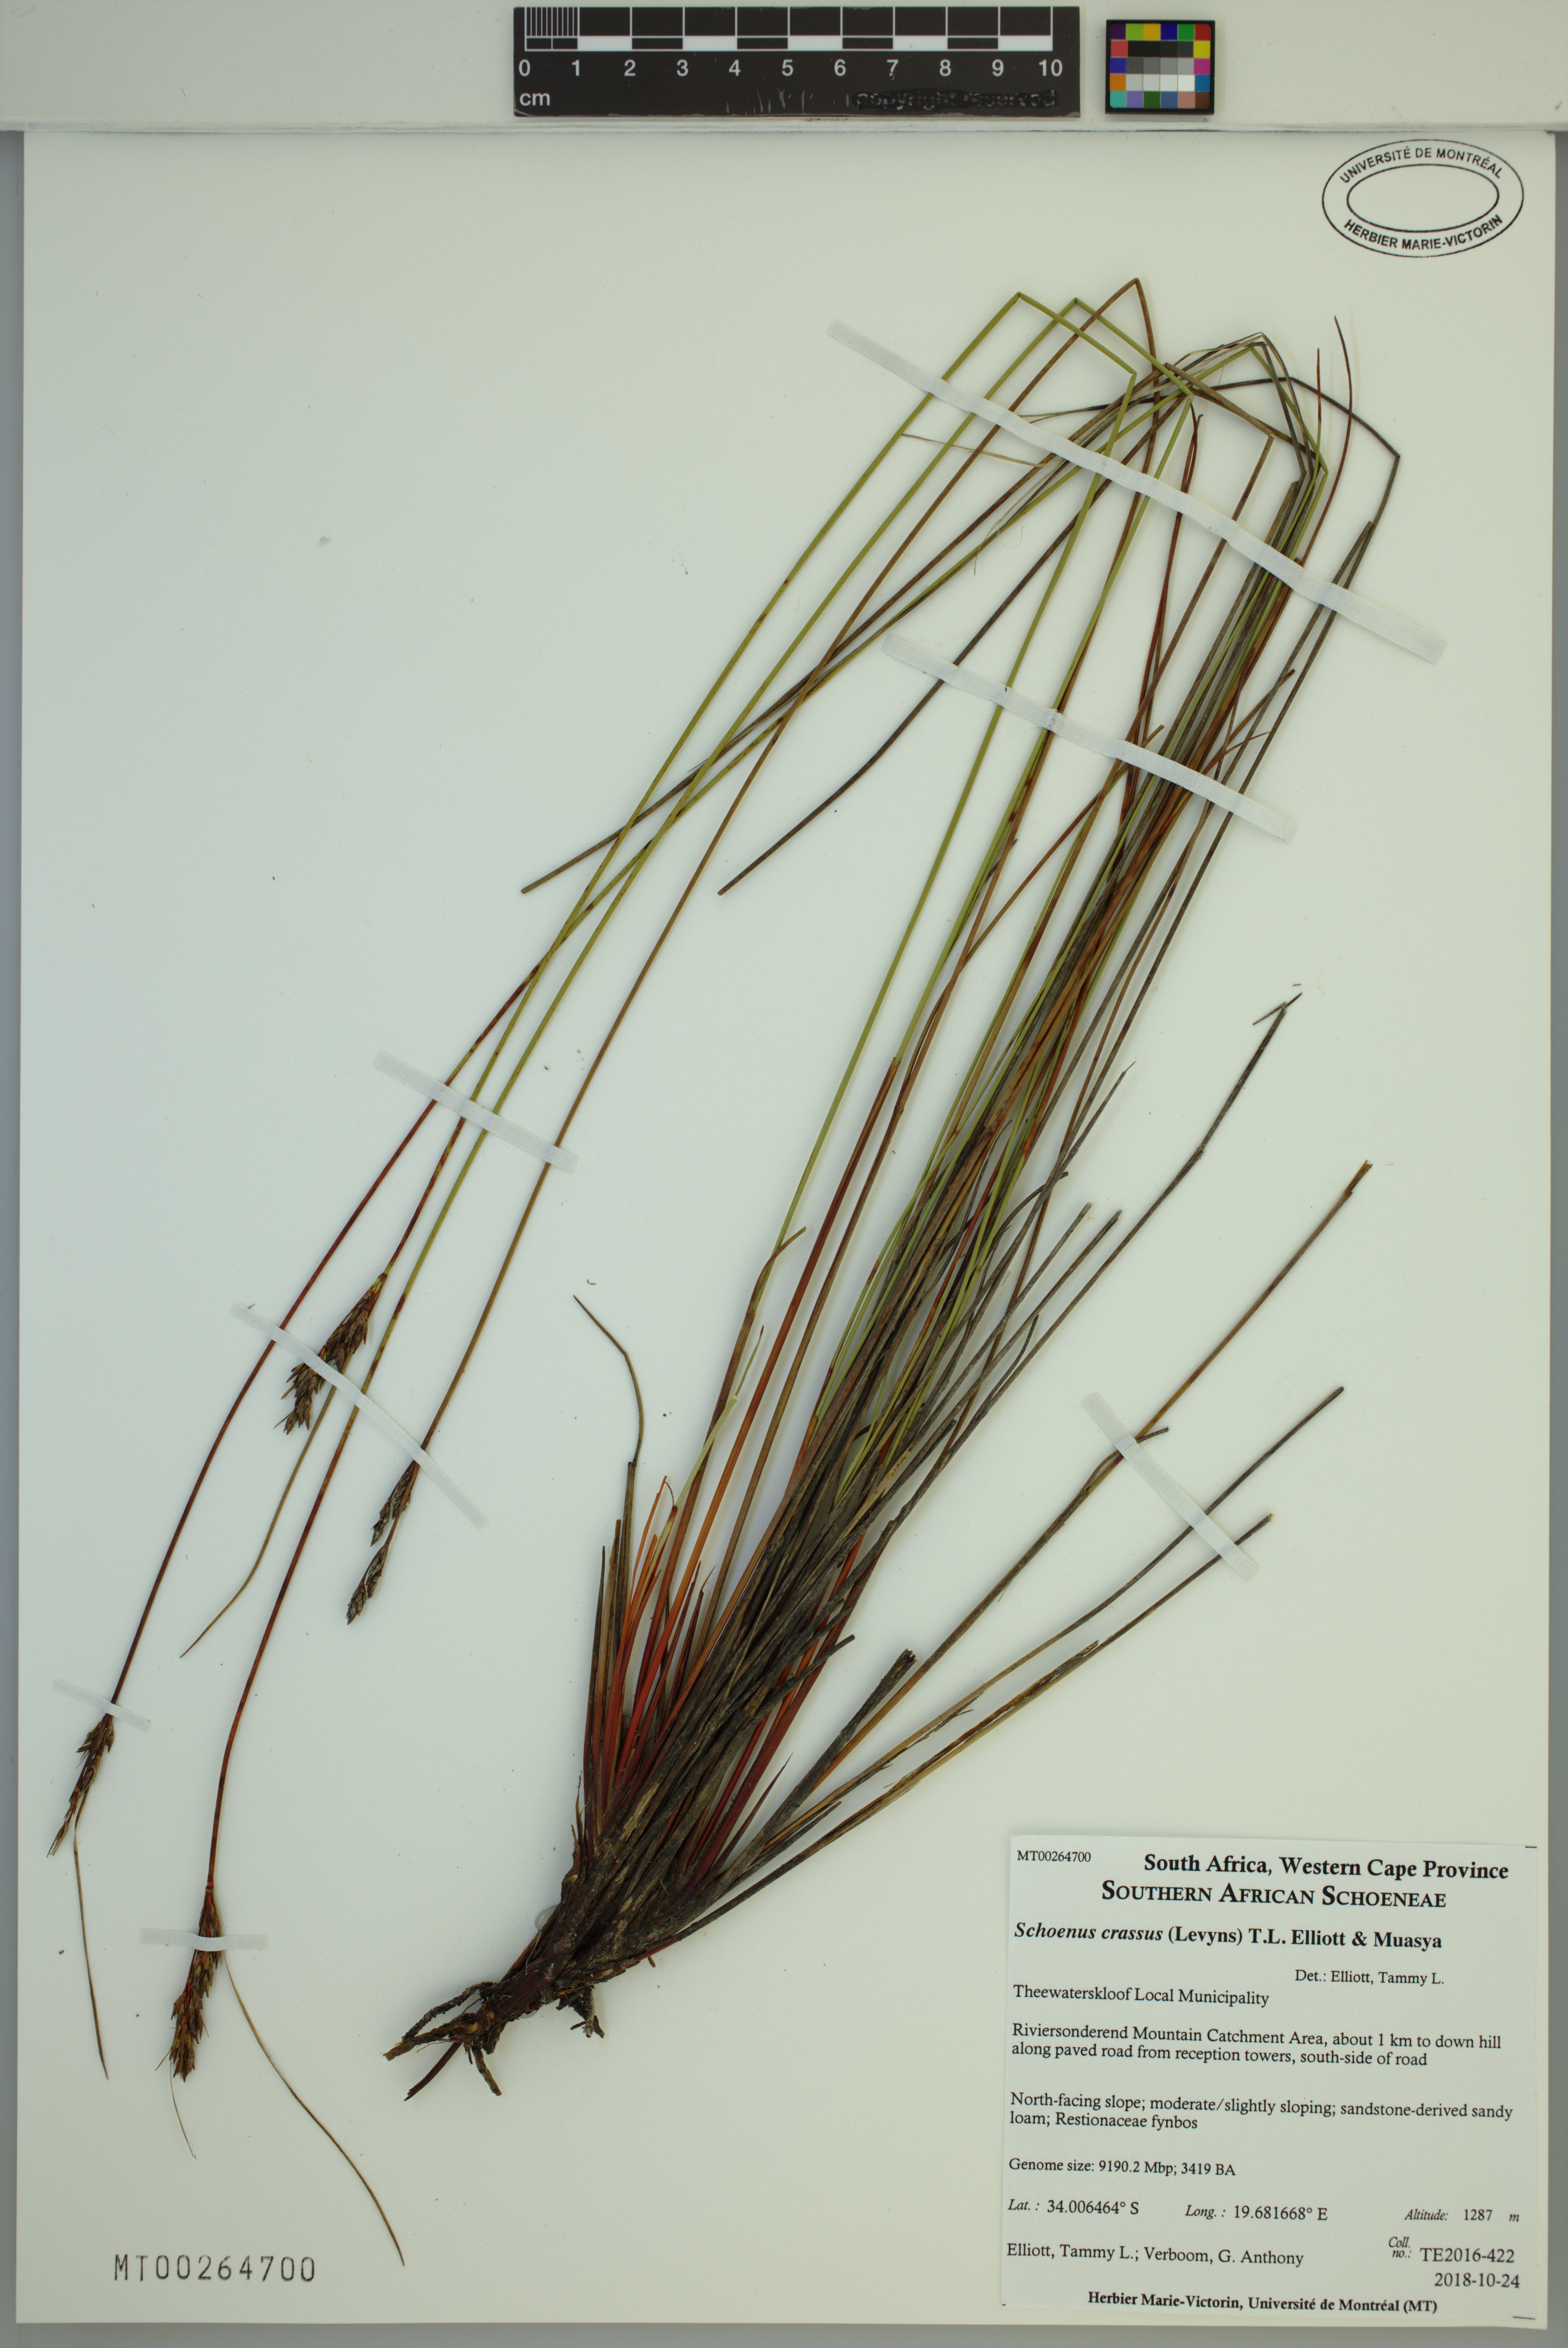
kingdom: Plantae
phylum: Tracheophyta
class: Liliopsida
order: Poales
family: Cyperaceae
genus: Schoenus
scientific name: Schoenus crassus
